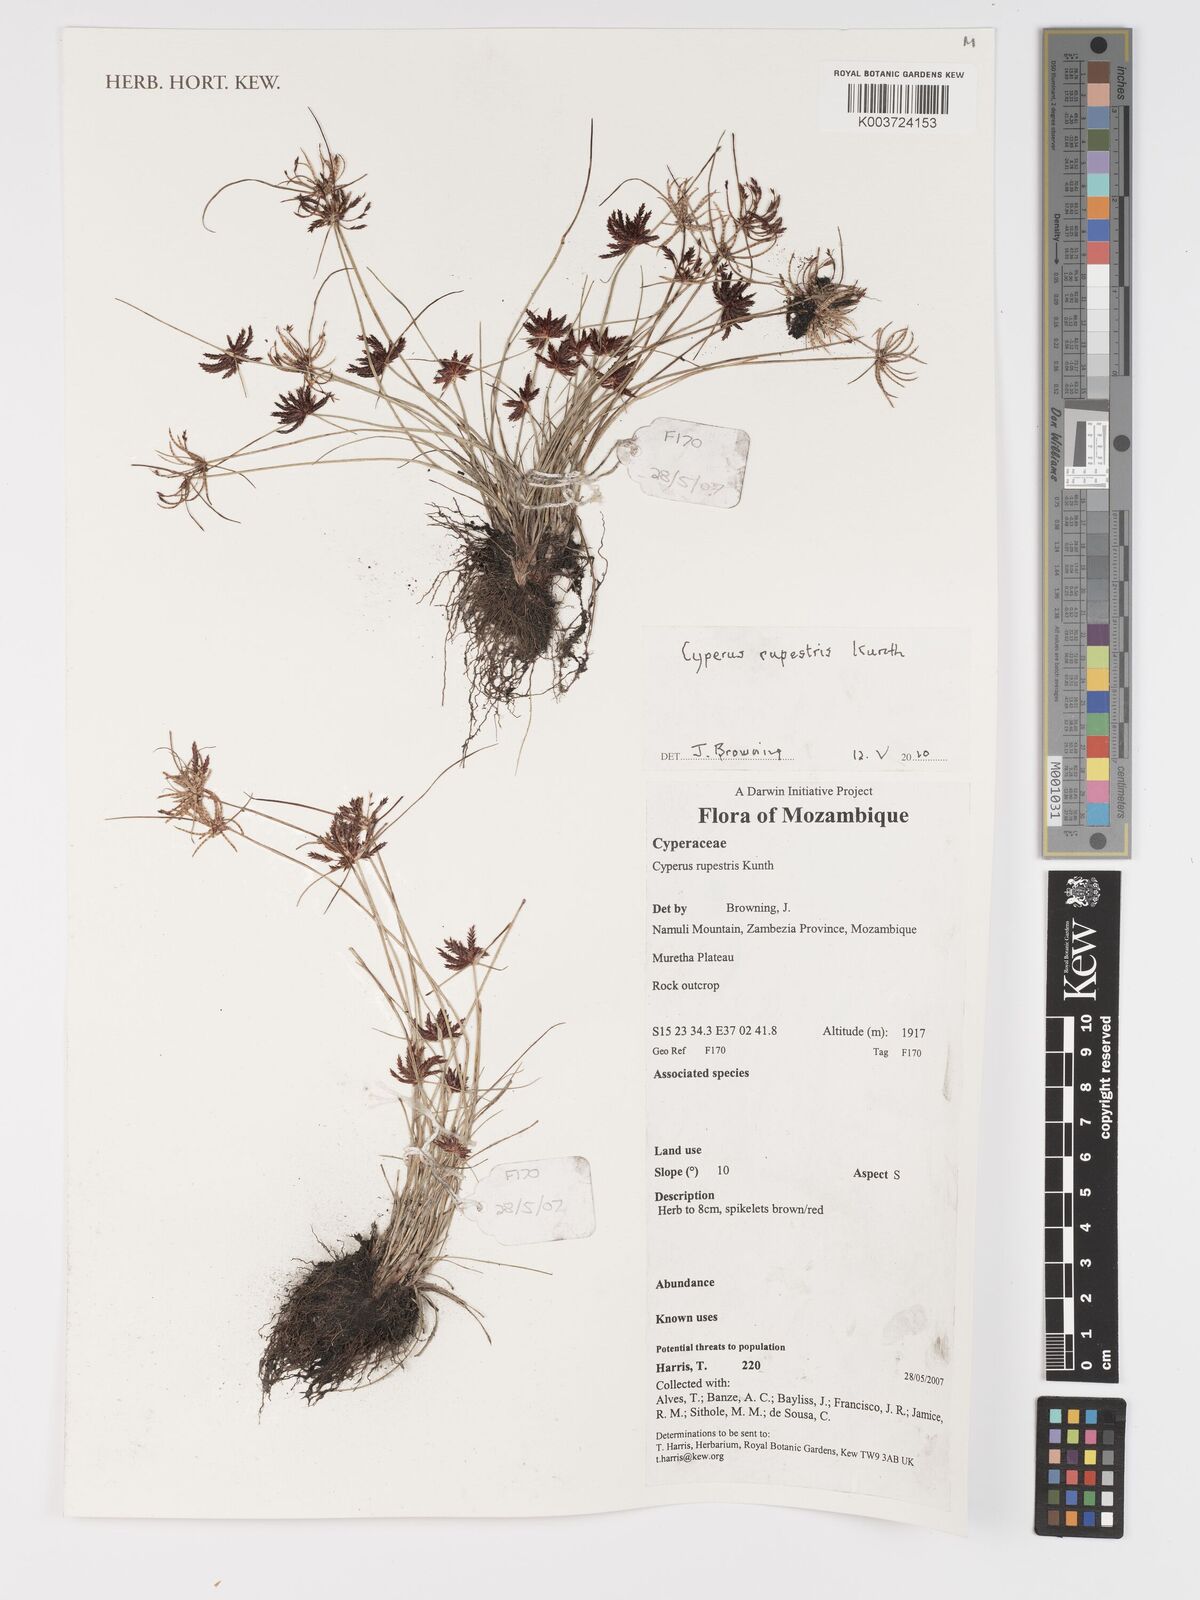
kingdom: Plantae
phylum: Tracheophyta
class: Liliopsida
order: Poales
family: Cyperaceae
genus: Cyperus
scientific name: Cyperus rupestris
